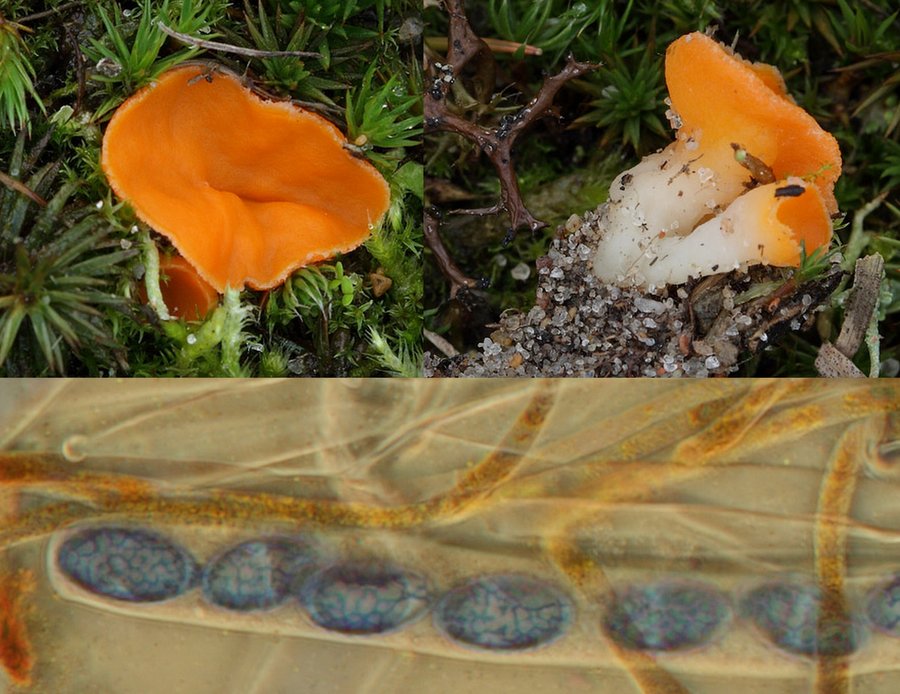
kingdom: Fungi
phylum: Ascomycota
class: Pezizomycetes
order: Pezizales
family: Pyronemataceae
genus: Neottiella
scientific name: Neottiella rutilans
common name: jomfruhår-mosbæger
